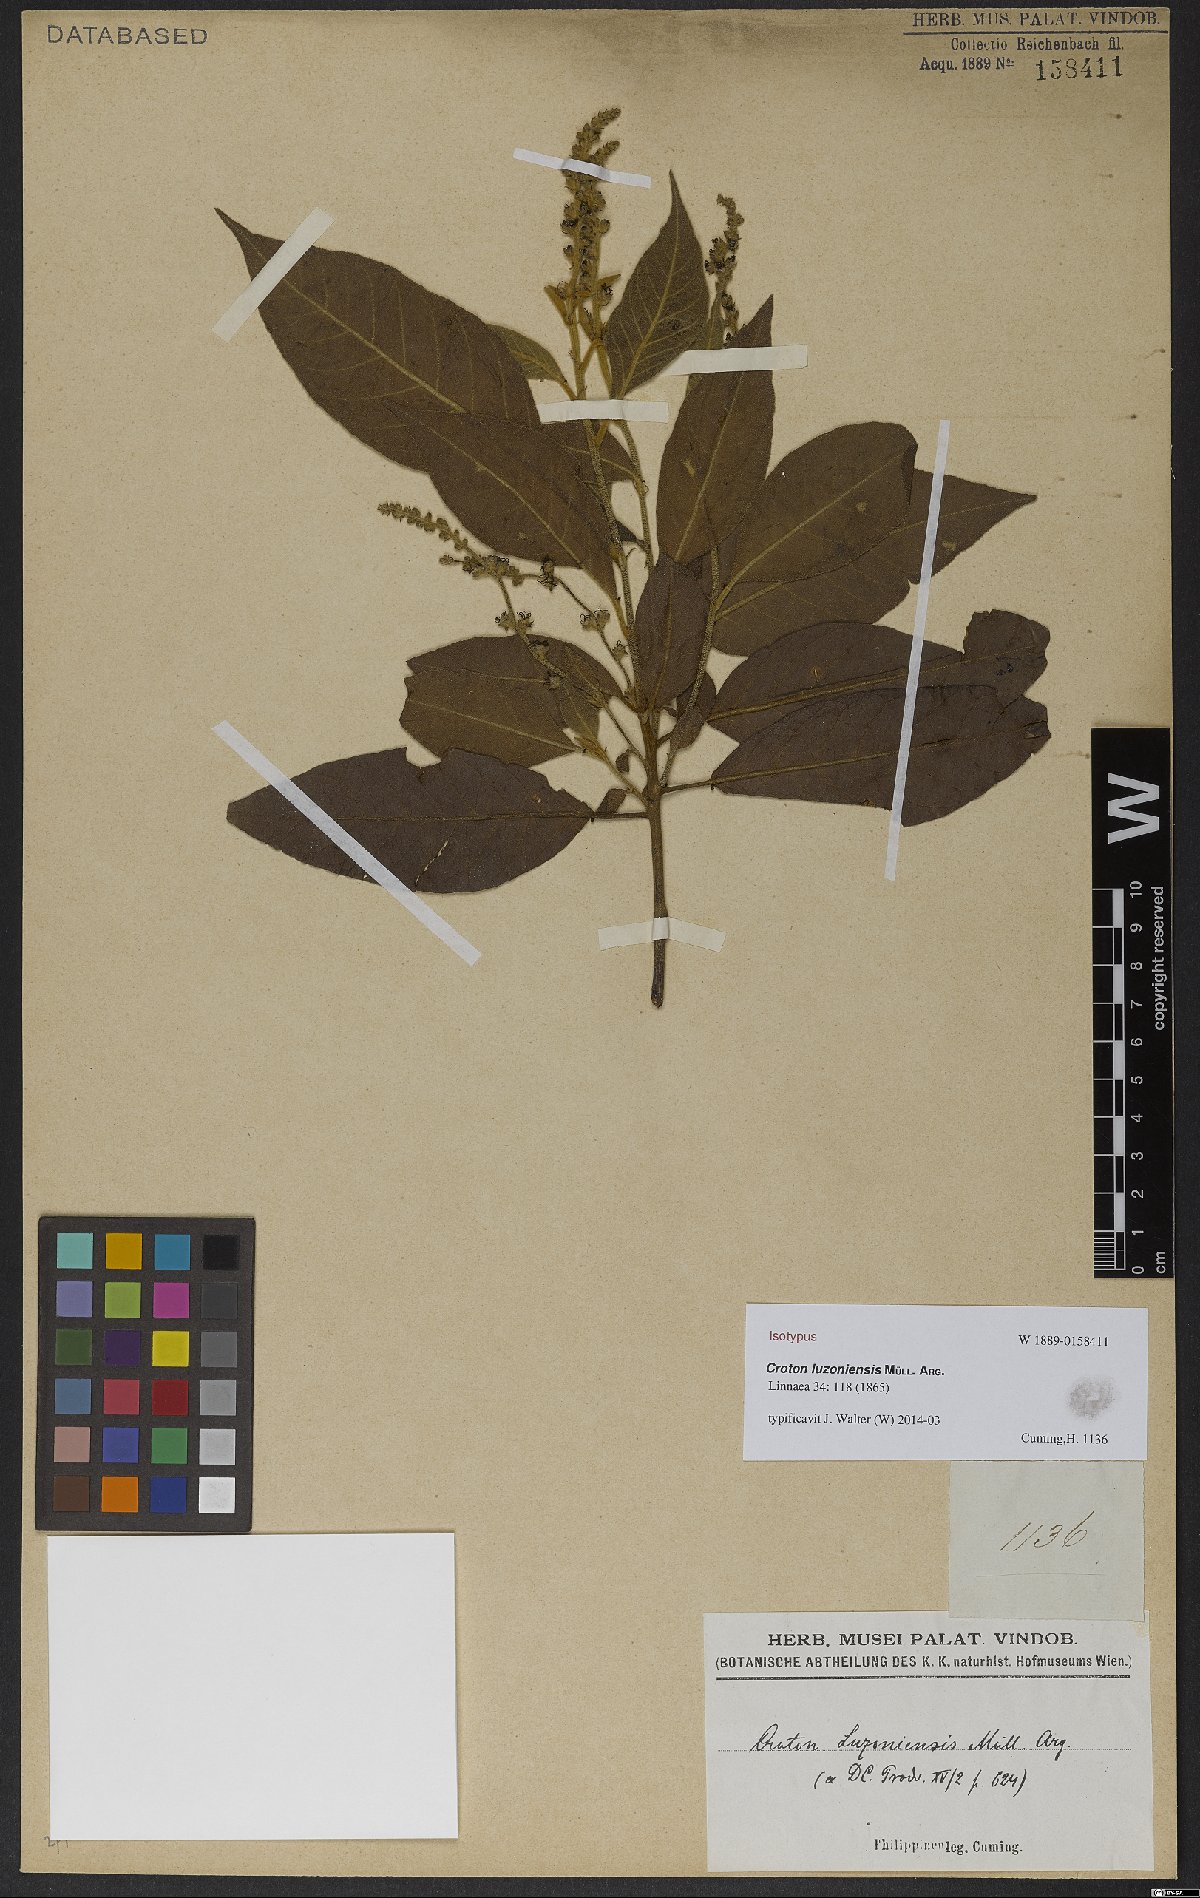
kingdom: Plantae
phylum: Tracheophyta
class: Magnoliopsida
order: Malpighiales
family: Euphorbiaceae
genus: Croton
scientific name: Croton luzoniensis
